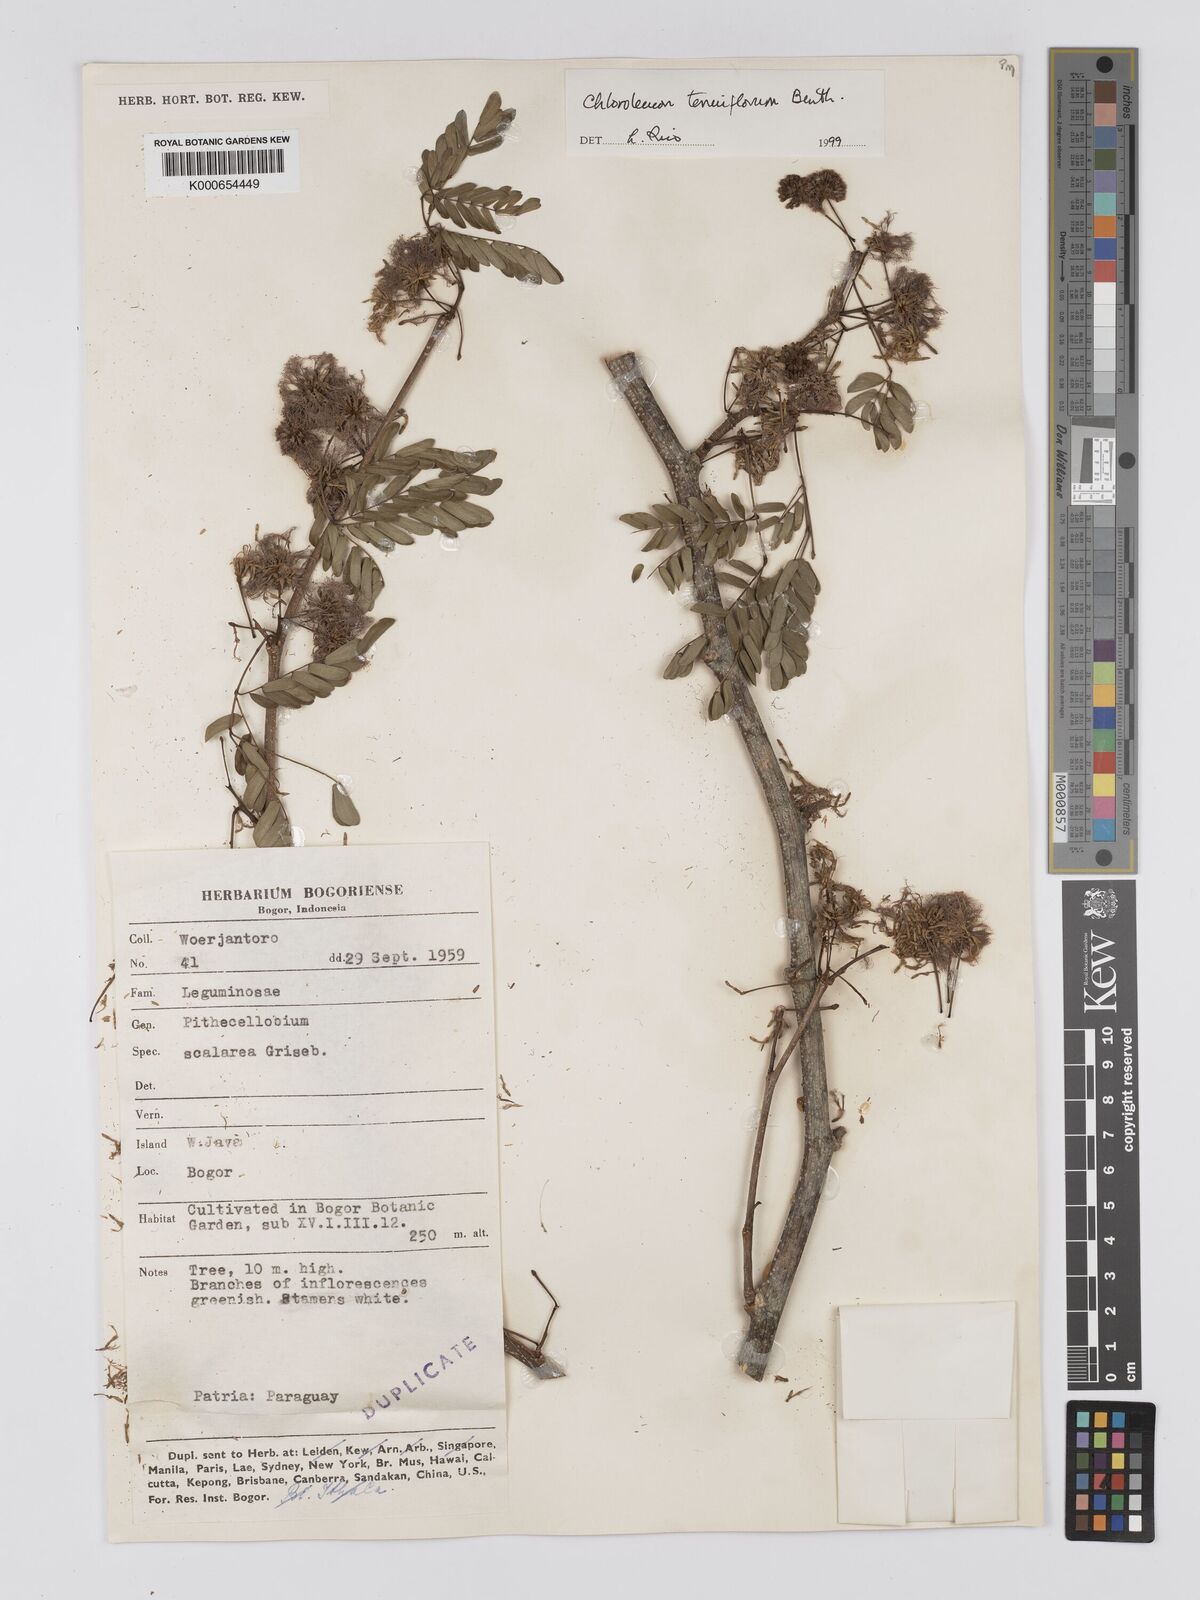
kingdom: Plantae
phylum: Tracheophyta
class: Magnoliopsida
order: Fabales
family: Fabaceae
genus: Chloroleucon
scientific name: Chloroleucon tenuiflorum
